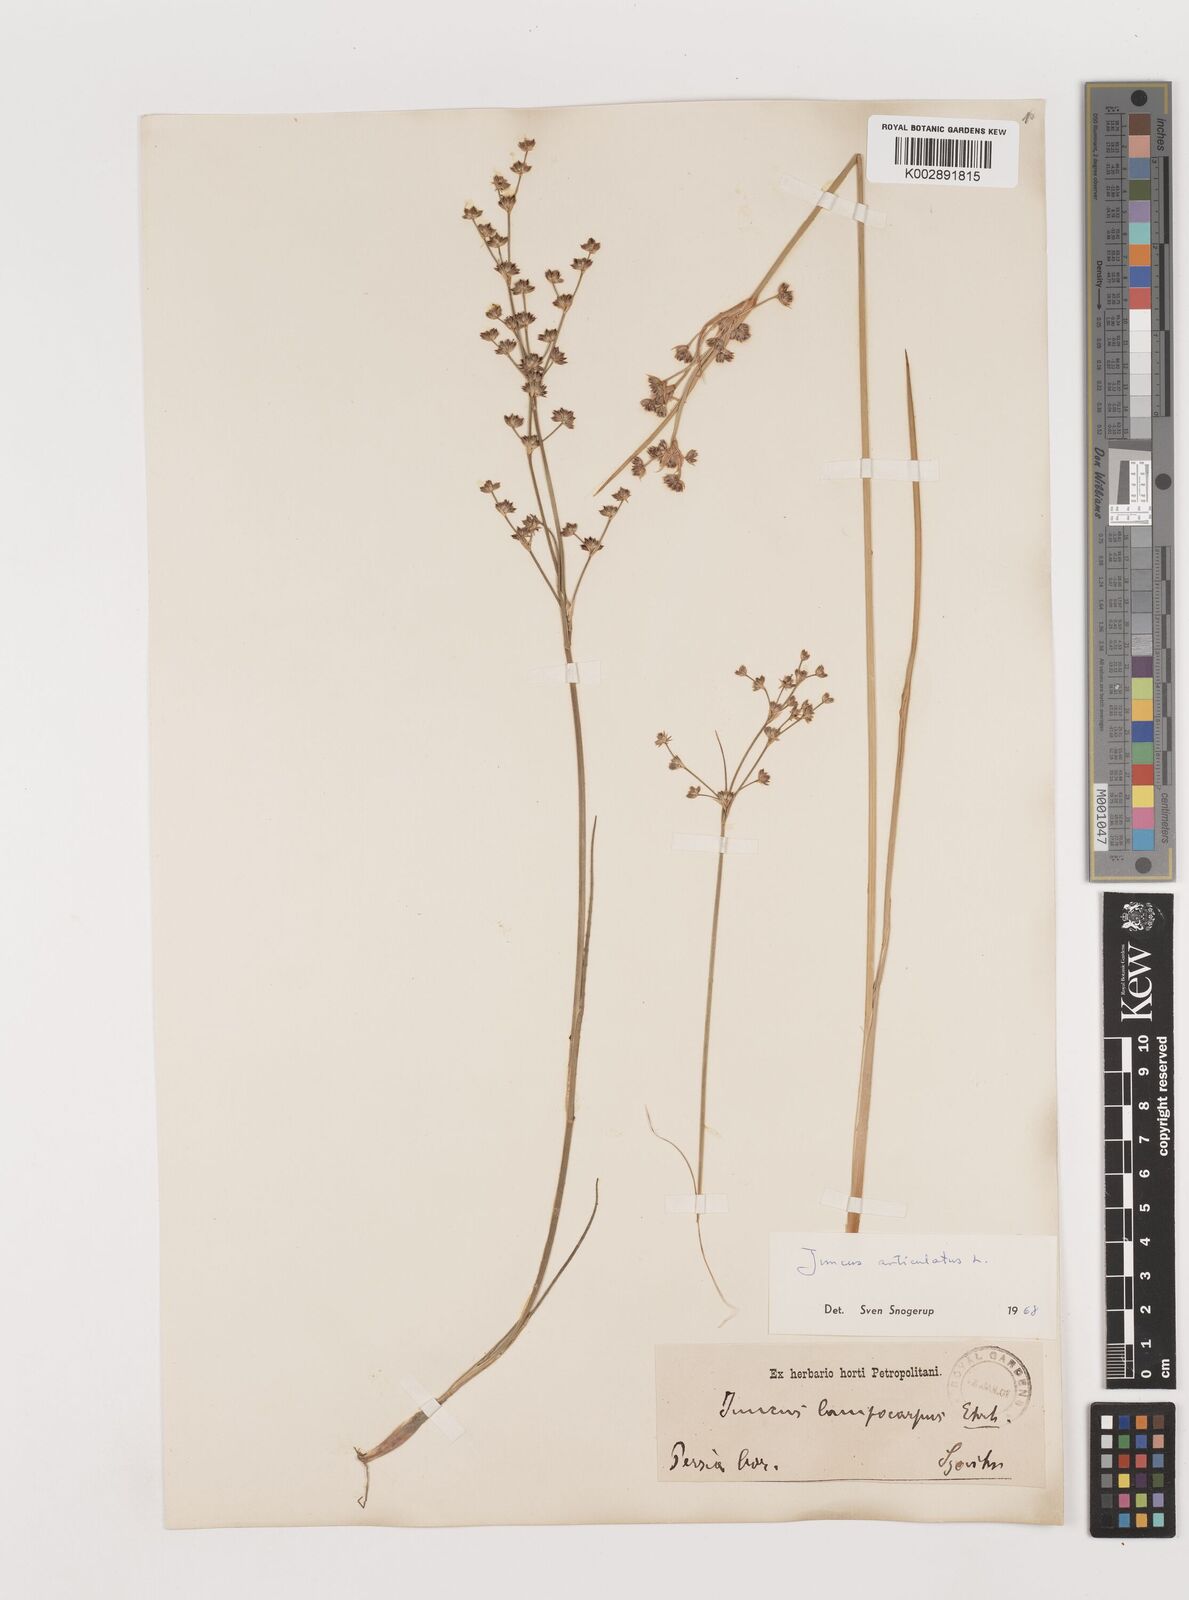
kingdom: Plantae
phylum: Tracheophyta
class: Liliopsida
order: Poales
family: Juncaceae
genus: Juncus
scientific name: Juncus articulatus
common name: Jointed rush
